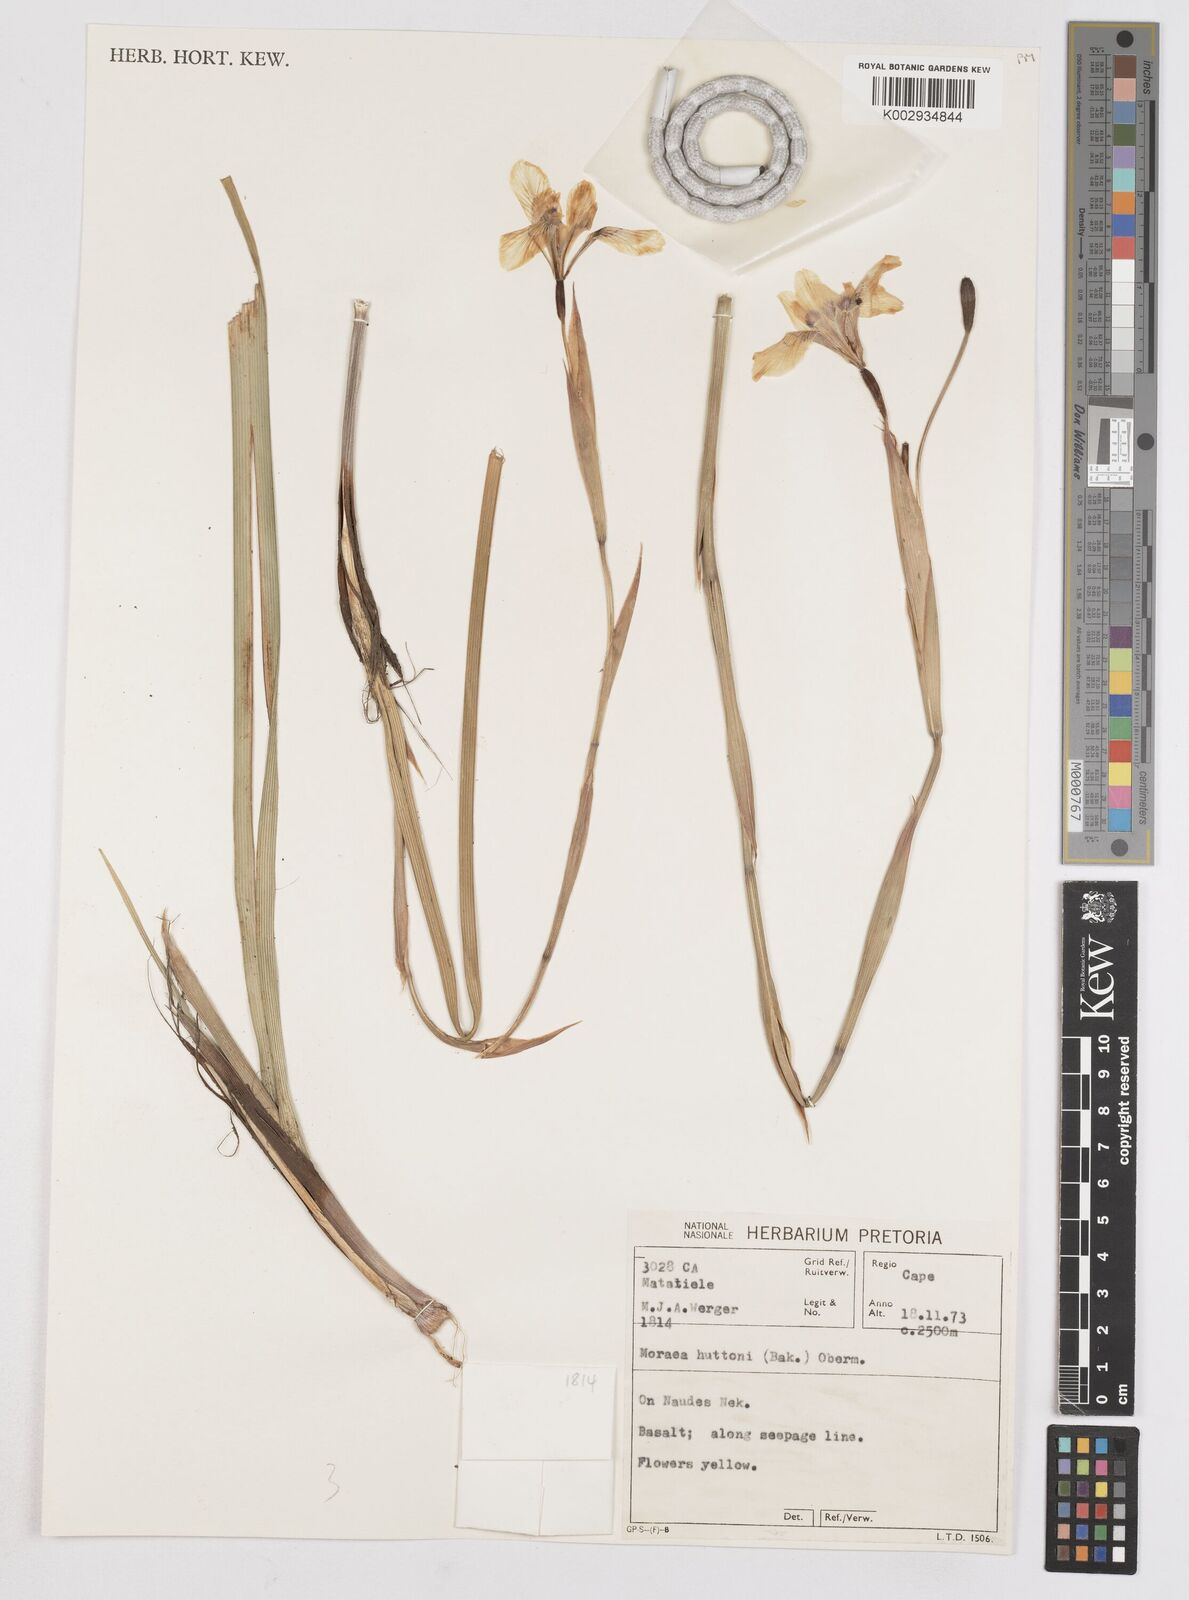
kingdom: Plantae
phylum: Tracheophyta
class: Liliopsida
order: Asparagales
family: Iridaceae
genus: Moraea
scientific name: Moraea huttonii
